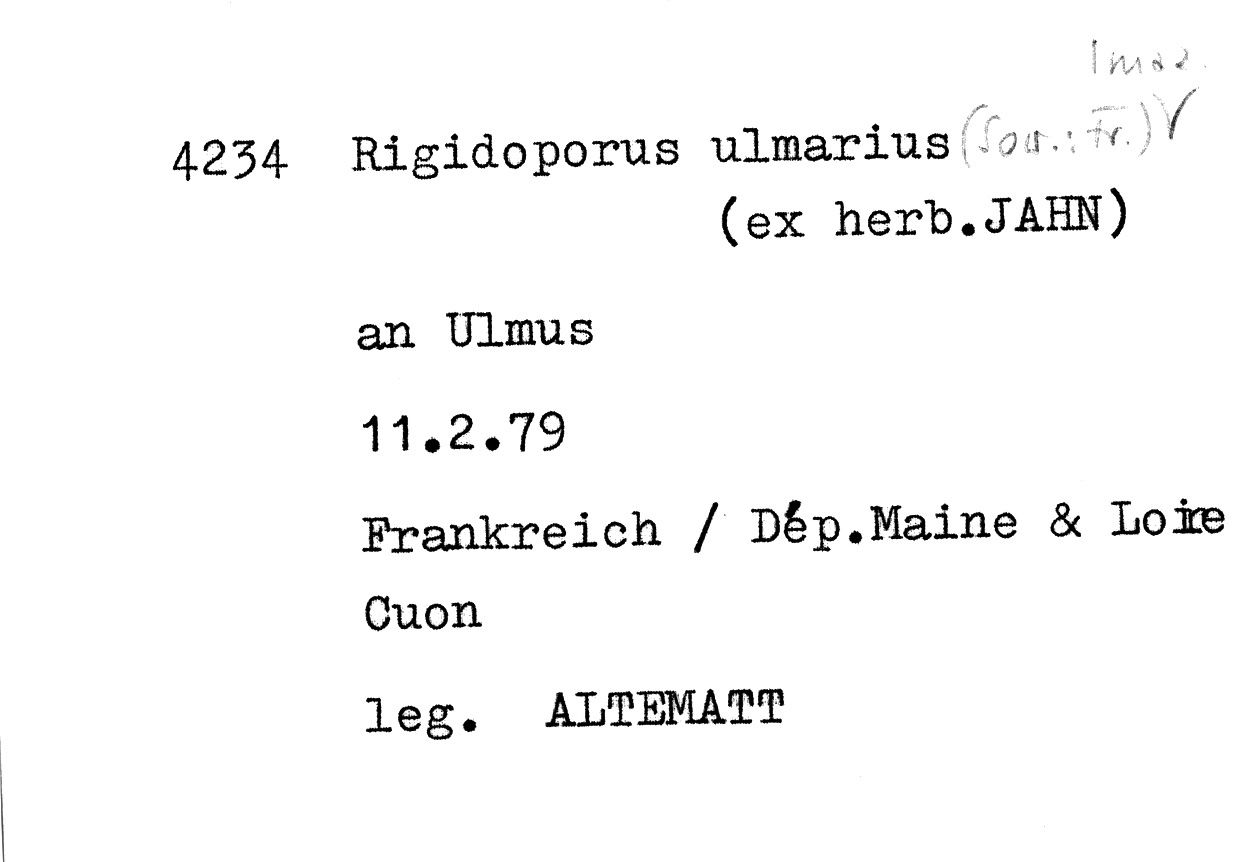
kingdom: Fungi
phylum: Basidiomycota
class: Agaricomycetes
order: Polyporales
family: Meripilaceae
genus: Rigidoporus
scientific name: Rigidoporus ulmarius
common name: Giant elm bracket
